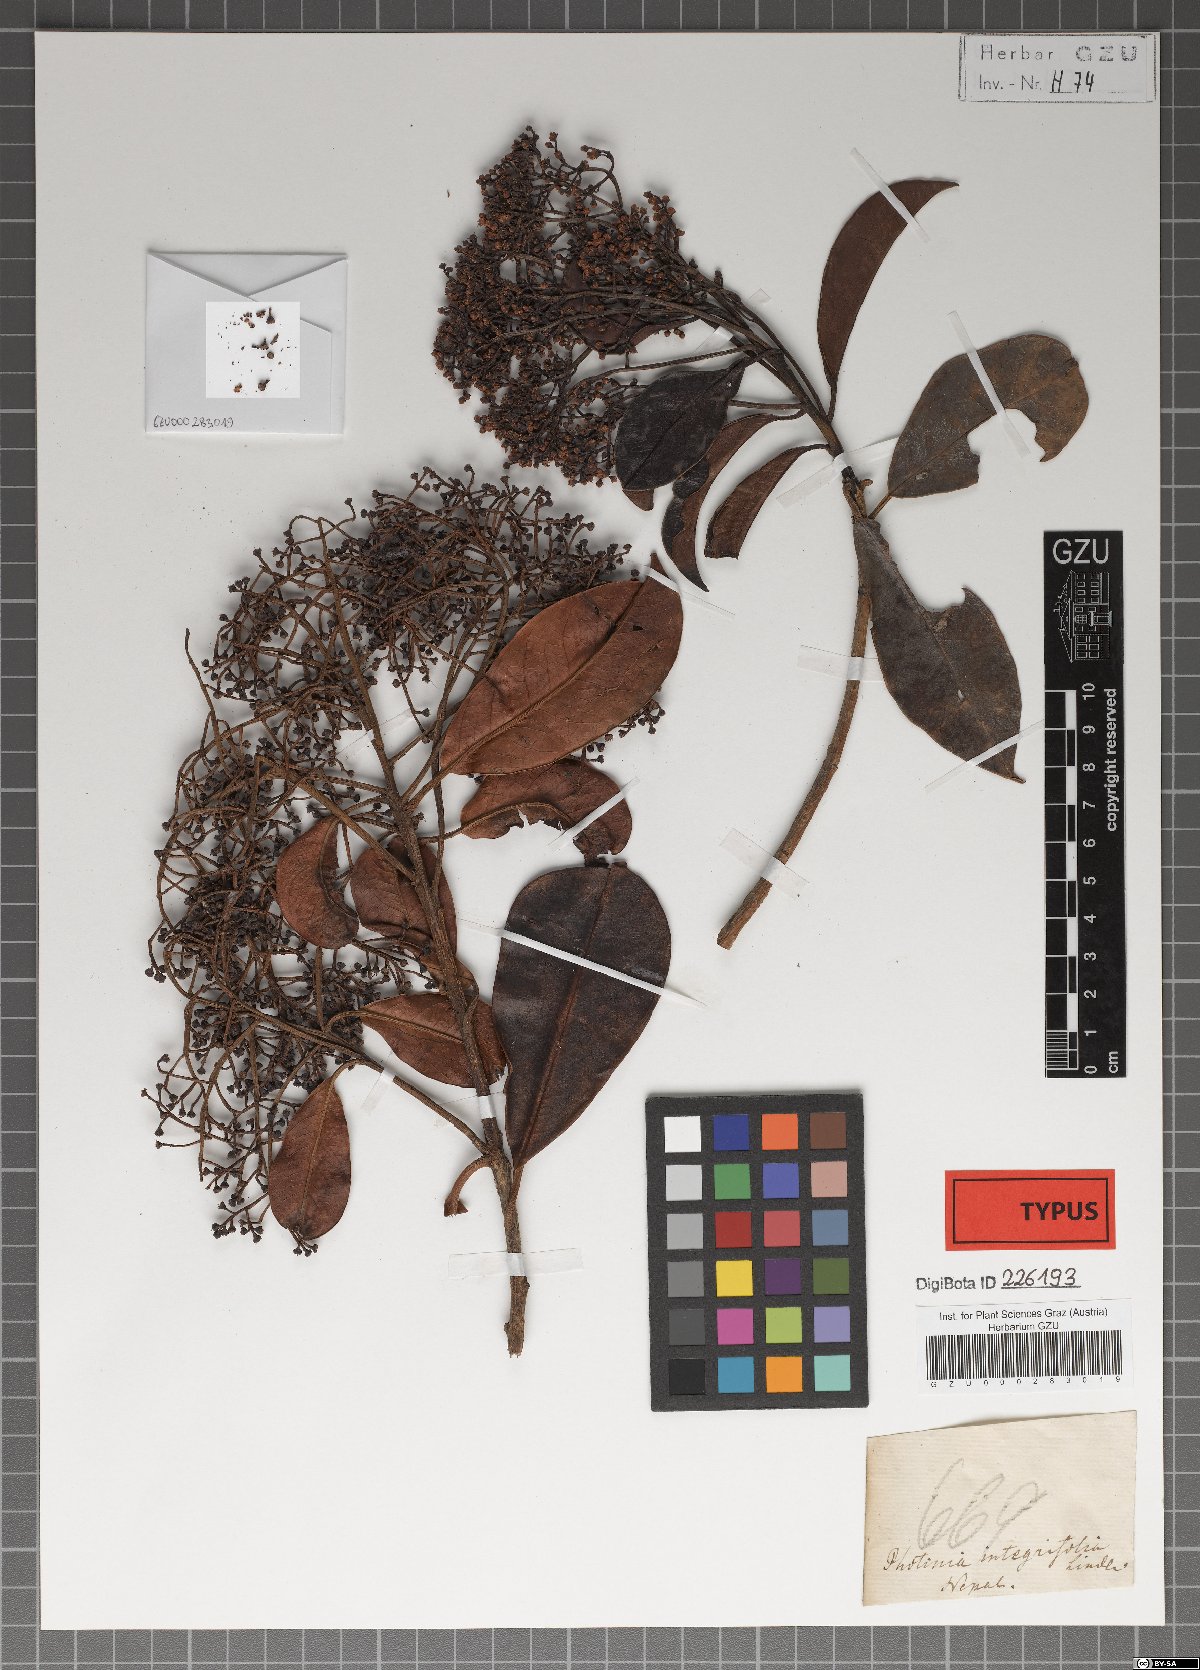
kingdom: Plantae
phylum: Tracheophyta
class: Magnoliopsida
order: Rosales
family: Rosaceae
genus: Photinia
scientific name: Photinia integrifolia
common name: Himalayan chokeberry
